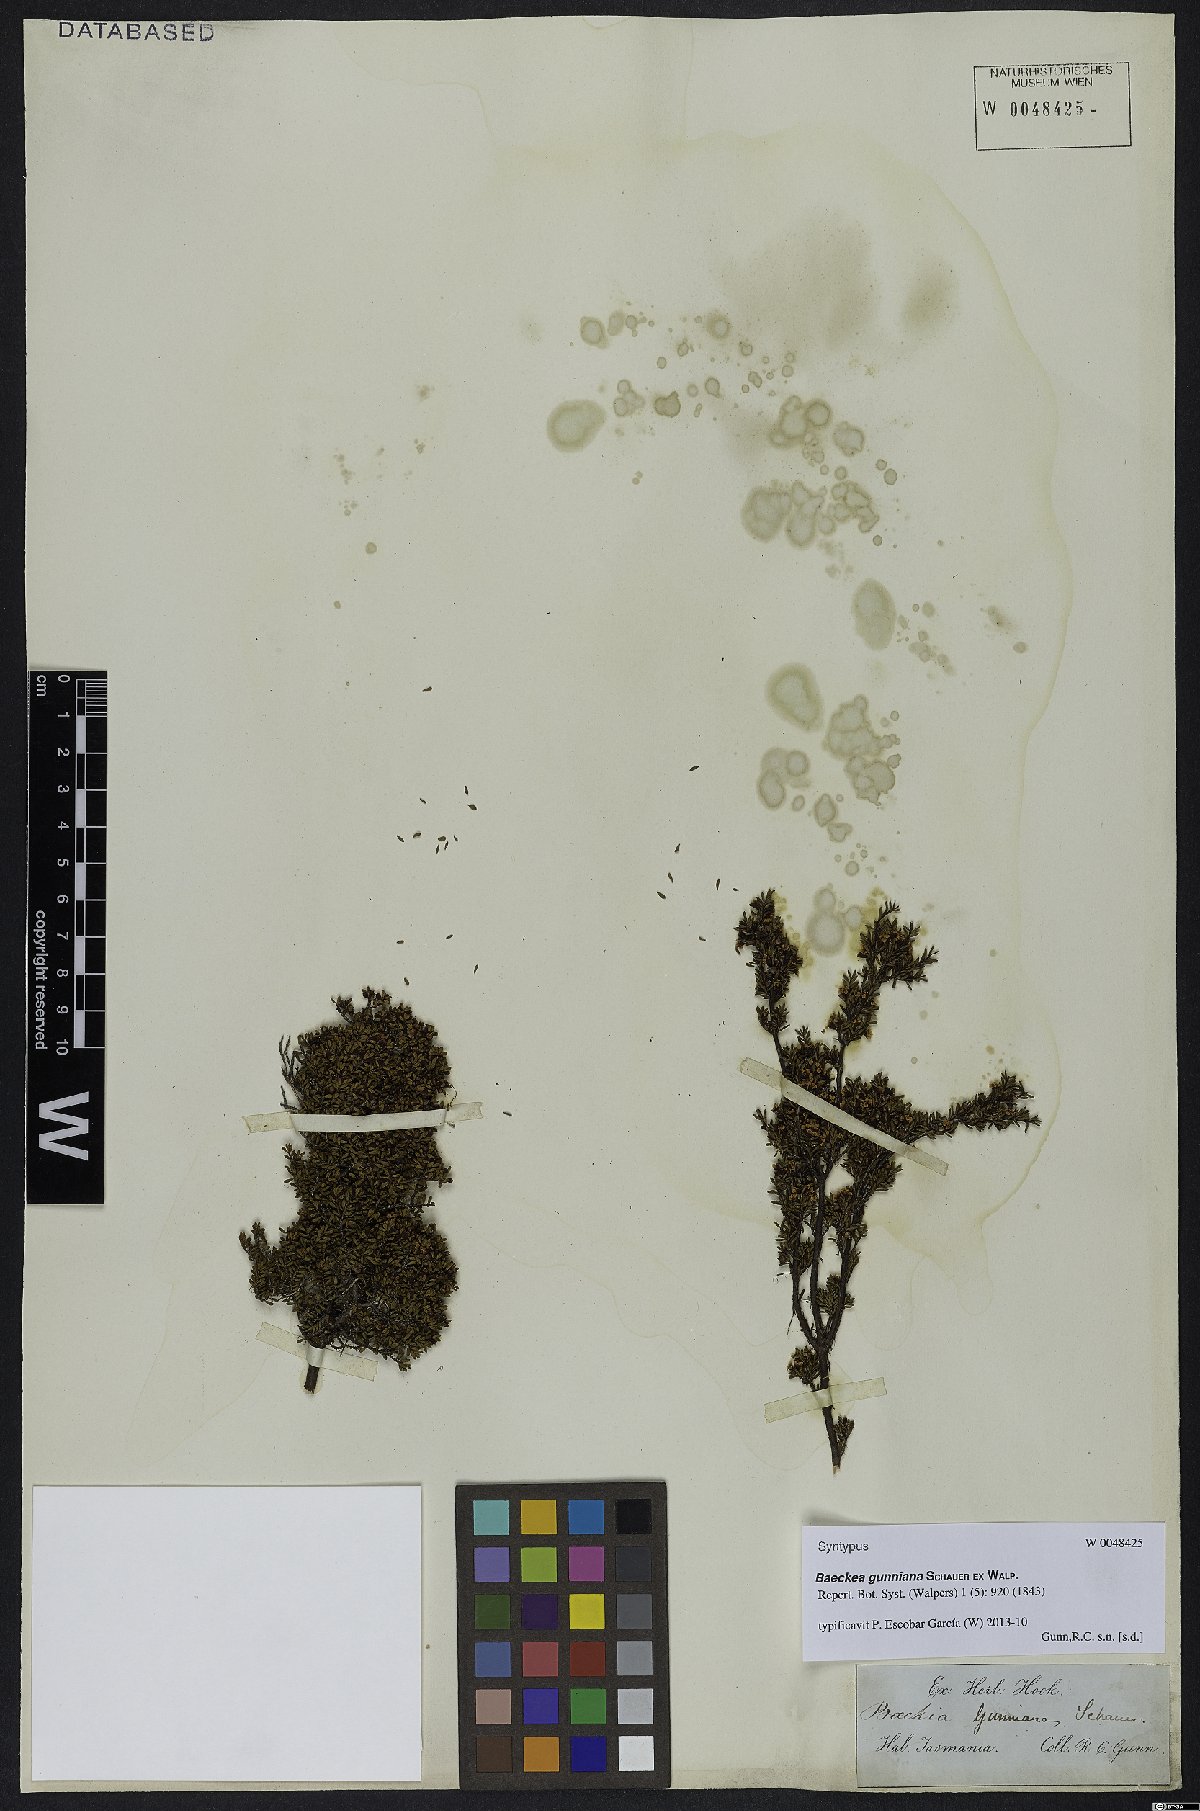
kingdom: Plantae
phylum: Tracheophyta
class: Magnoliopsida
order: Myrtales
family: Myrtaceae
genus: Baeckea
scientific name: Baeckea gunniana
